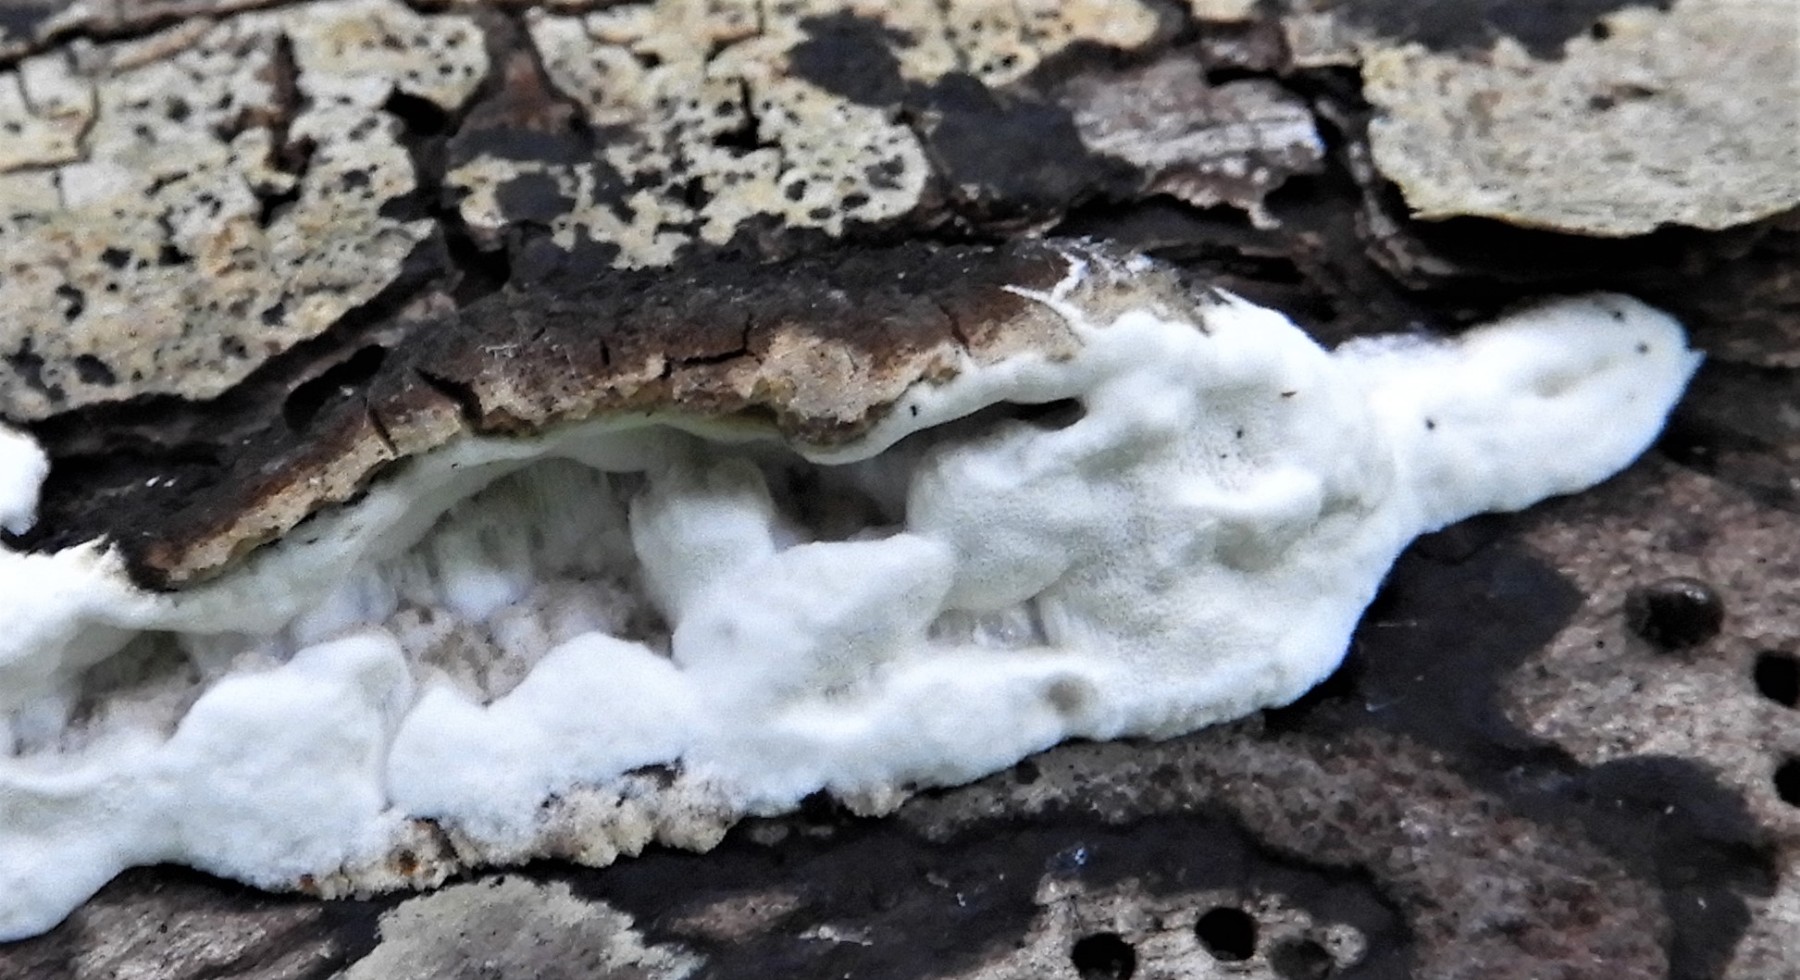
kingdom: Fungi
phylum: Basidiomycota
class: Agaricomycetes
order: Polyporales
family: Incrustoporiaceae
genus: Skeletocutis
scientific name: Skeletocutis nemoralis
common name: stor krystalporesvamp
